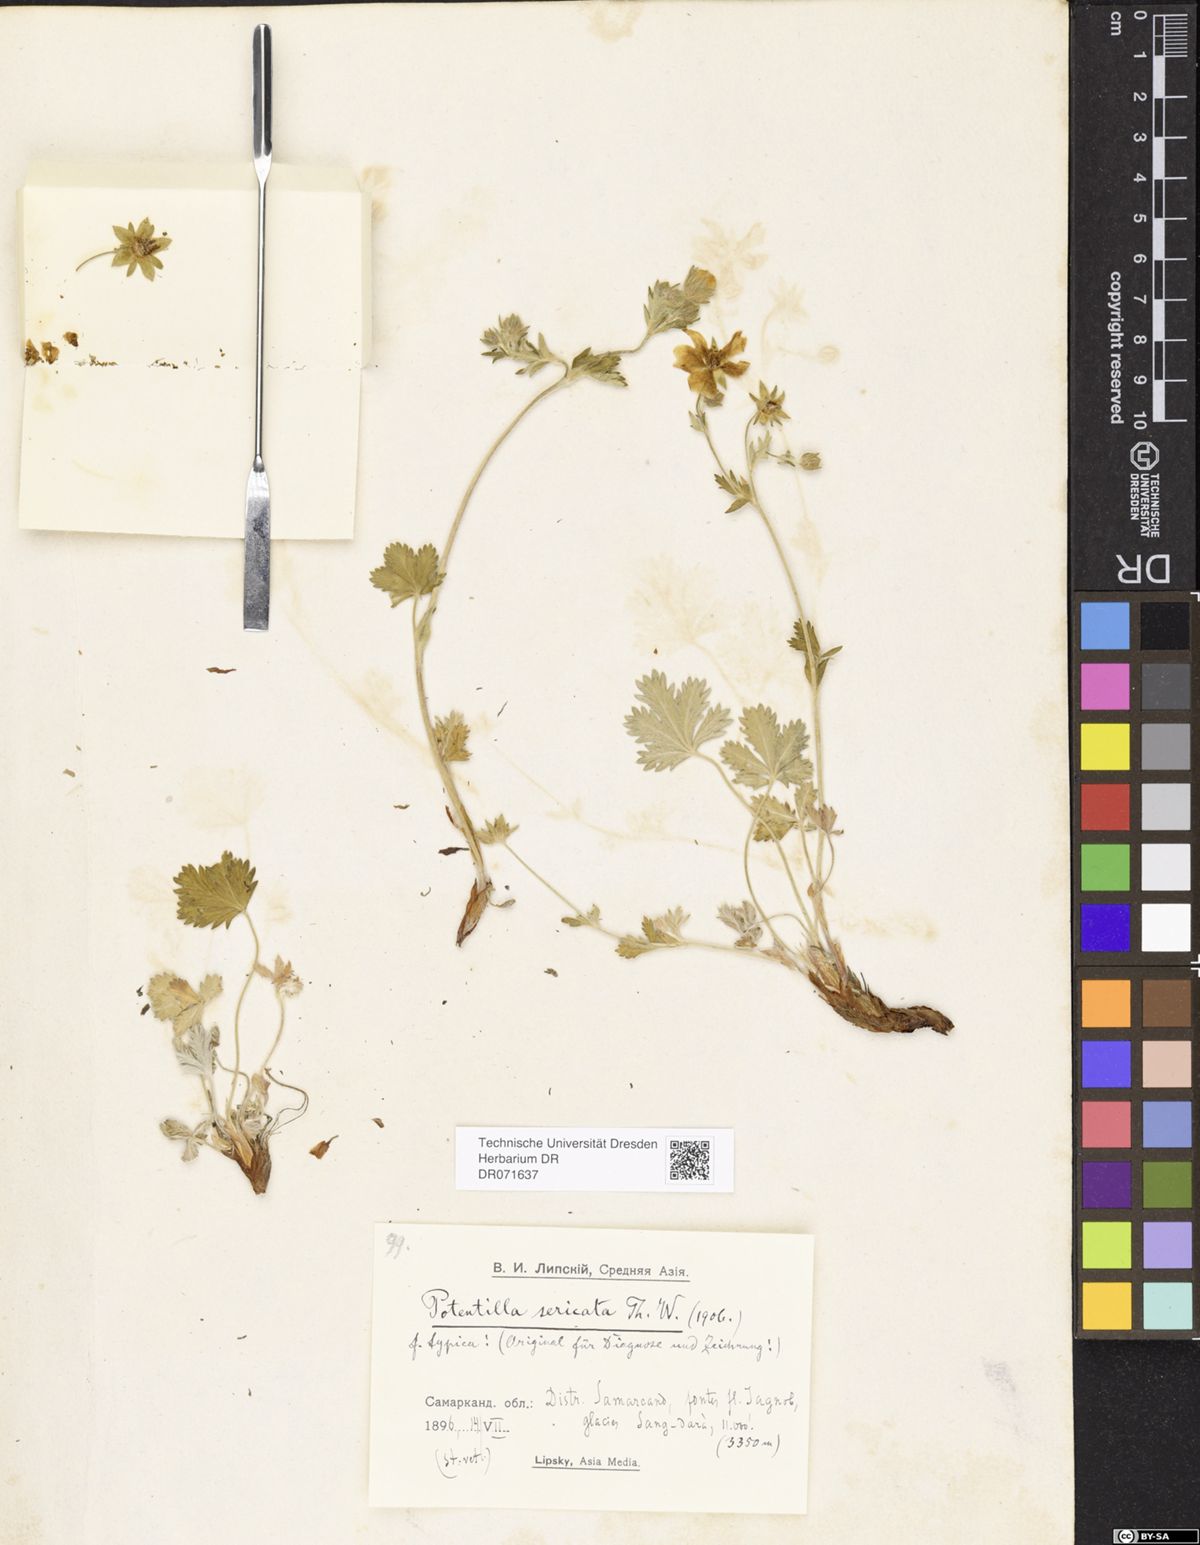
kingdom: Plantae
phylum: Tracheophyta
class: Magnoliopsida
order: Rosales
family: Rosaceae
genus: Potentilla
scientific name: Potentilla algida
